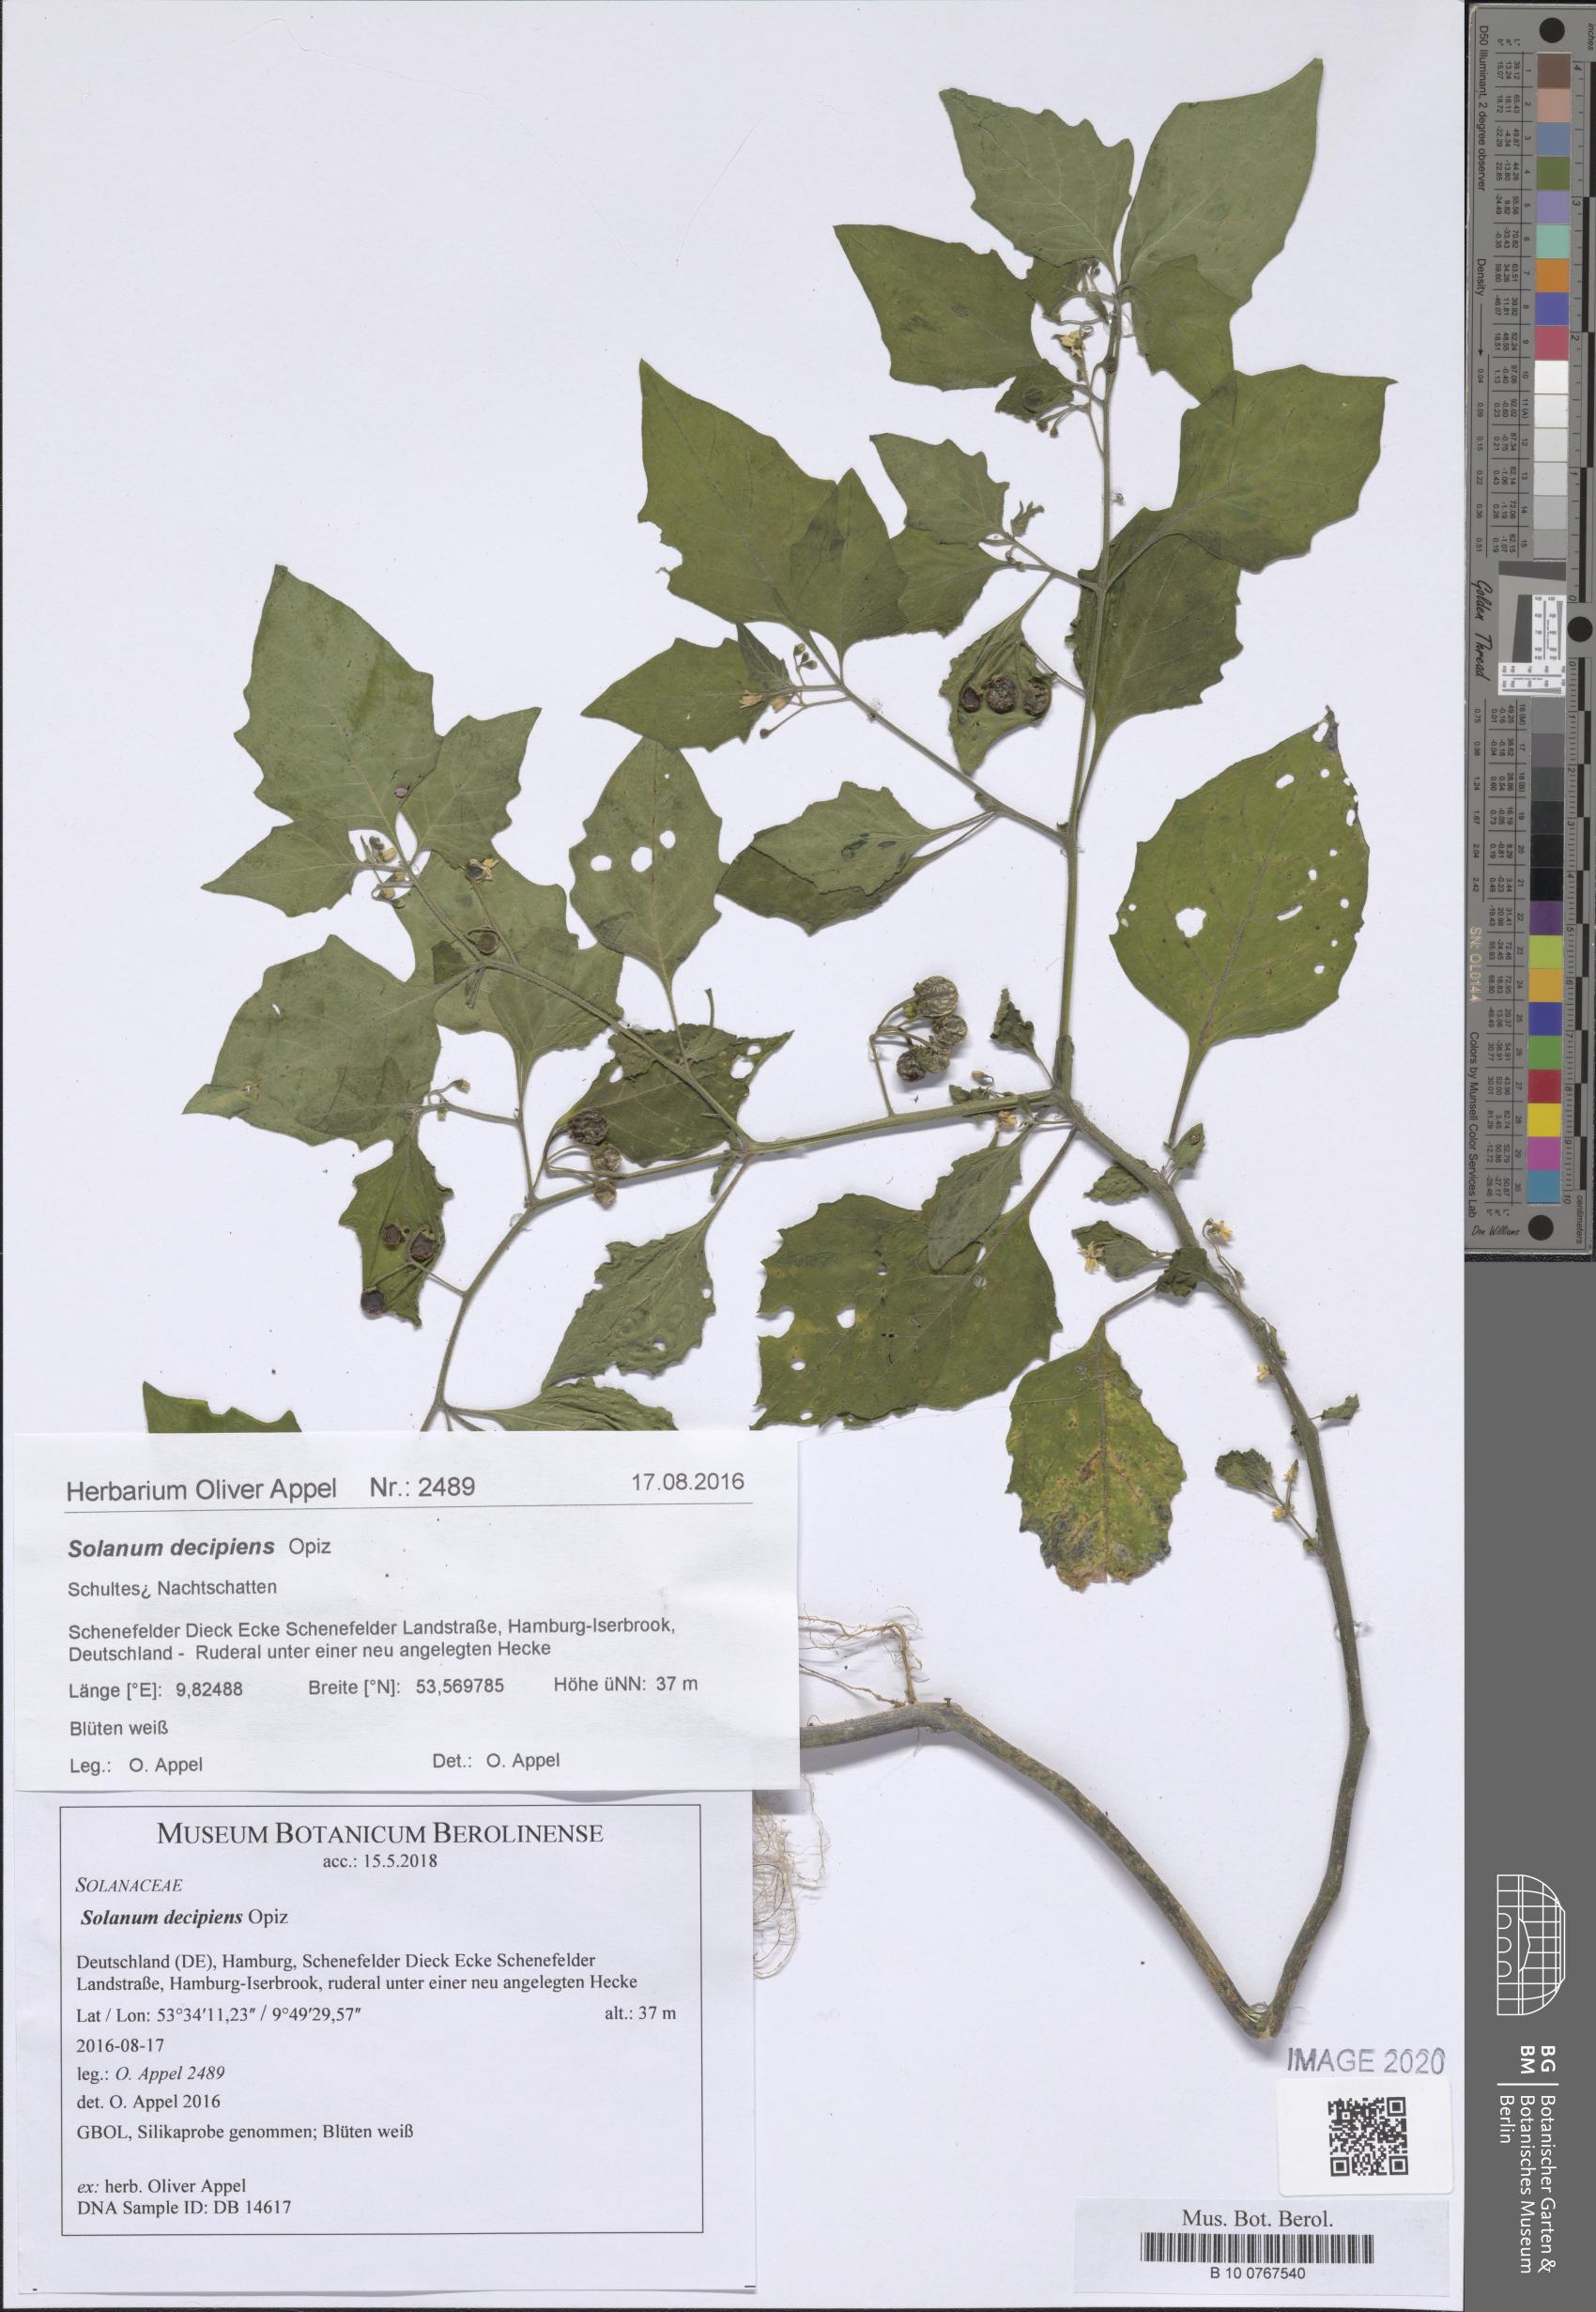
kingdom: Plantae
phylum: Tracheophyta
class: Magnoliopsida
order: Solanales
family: Solanaceae
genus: Solanum
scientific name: Solanum decipiens
